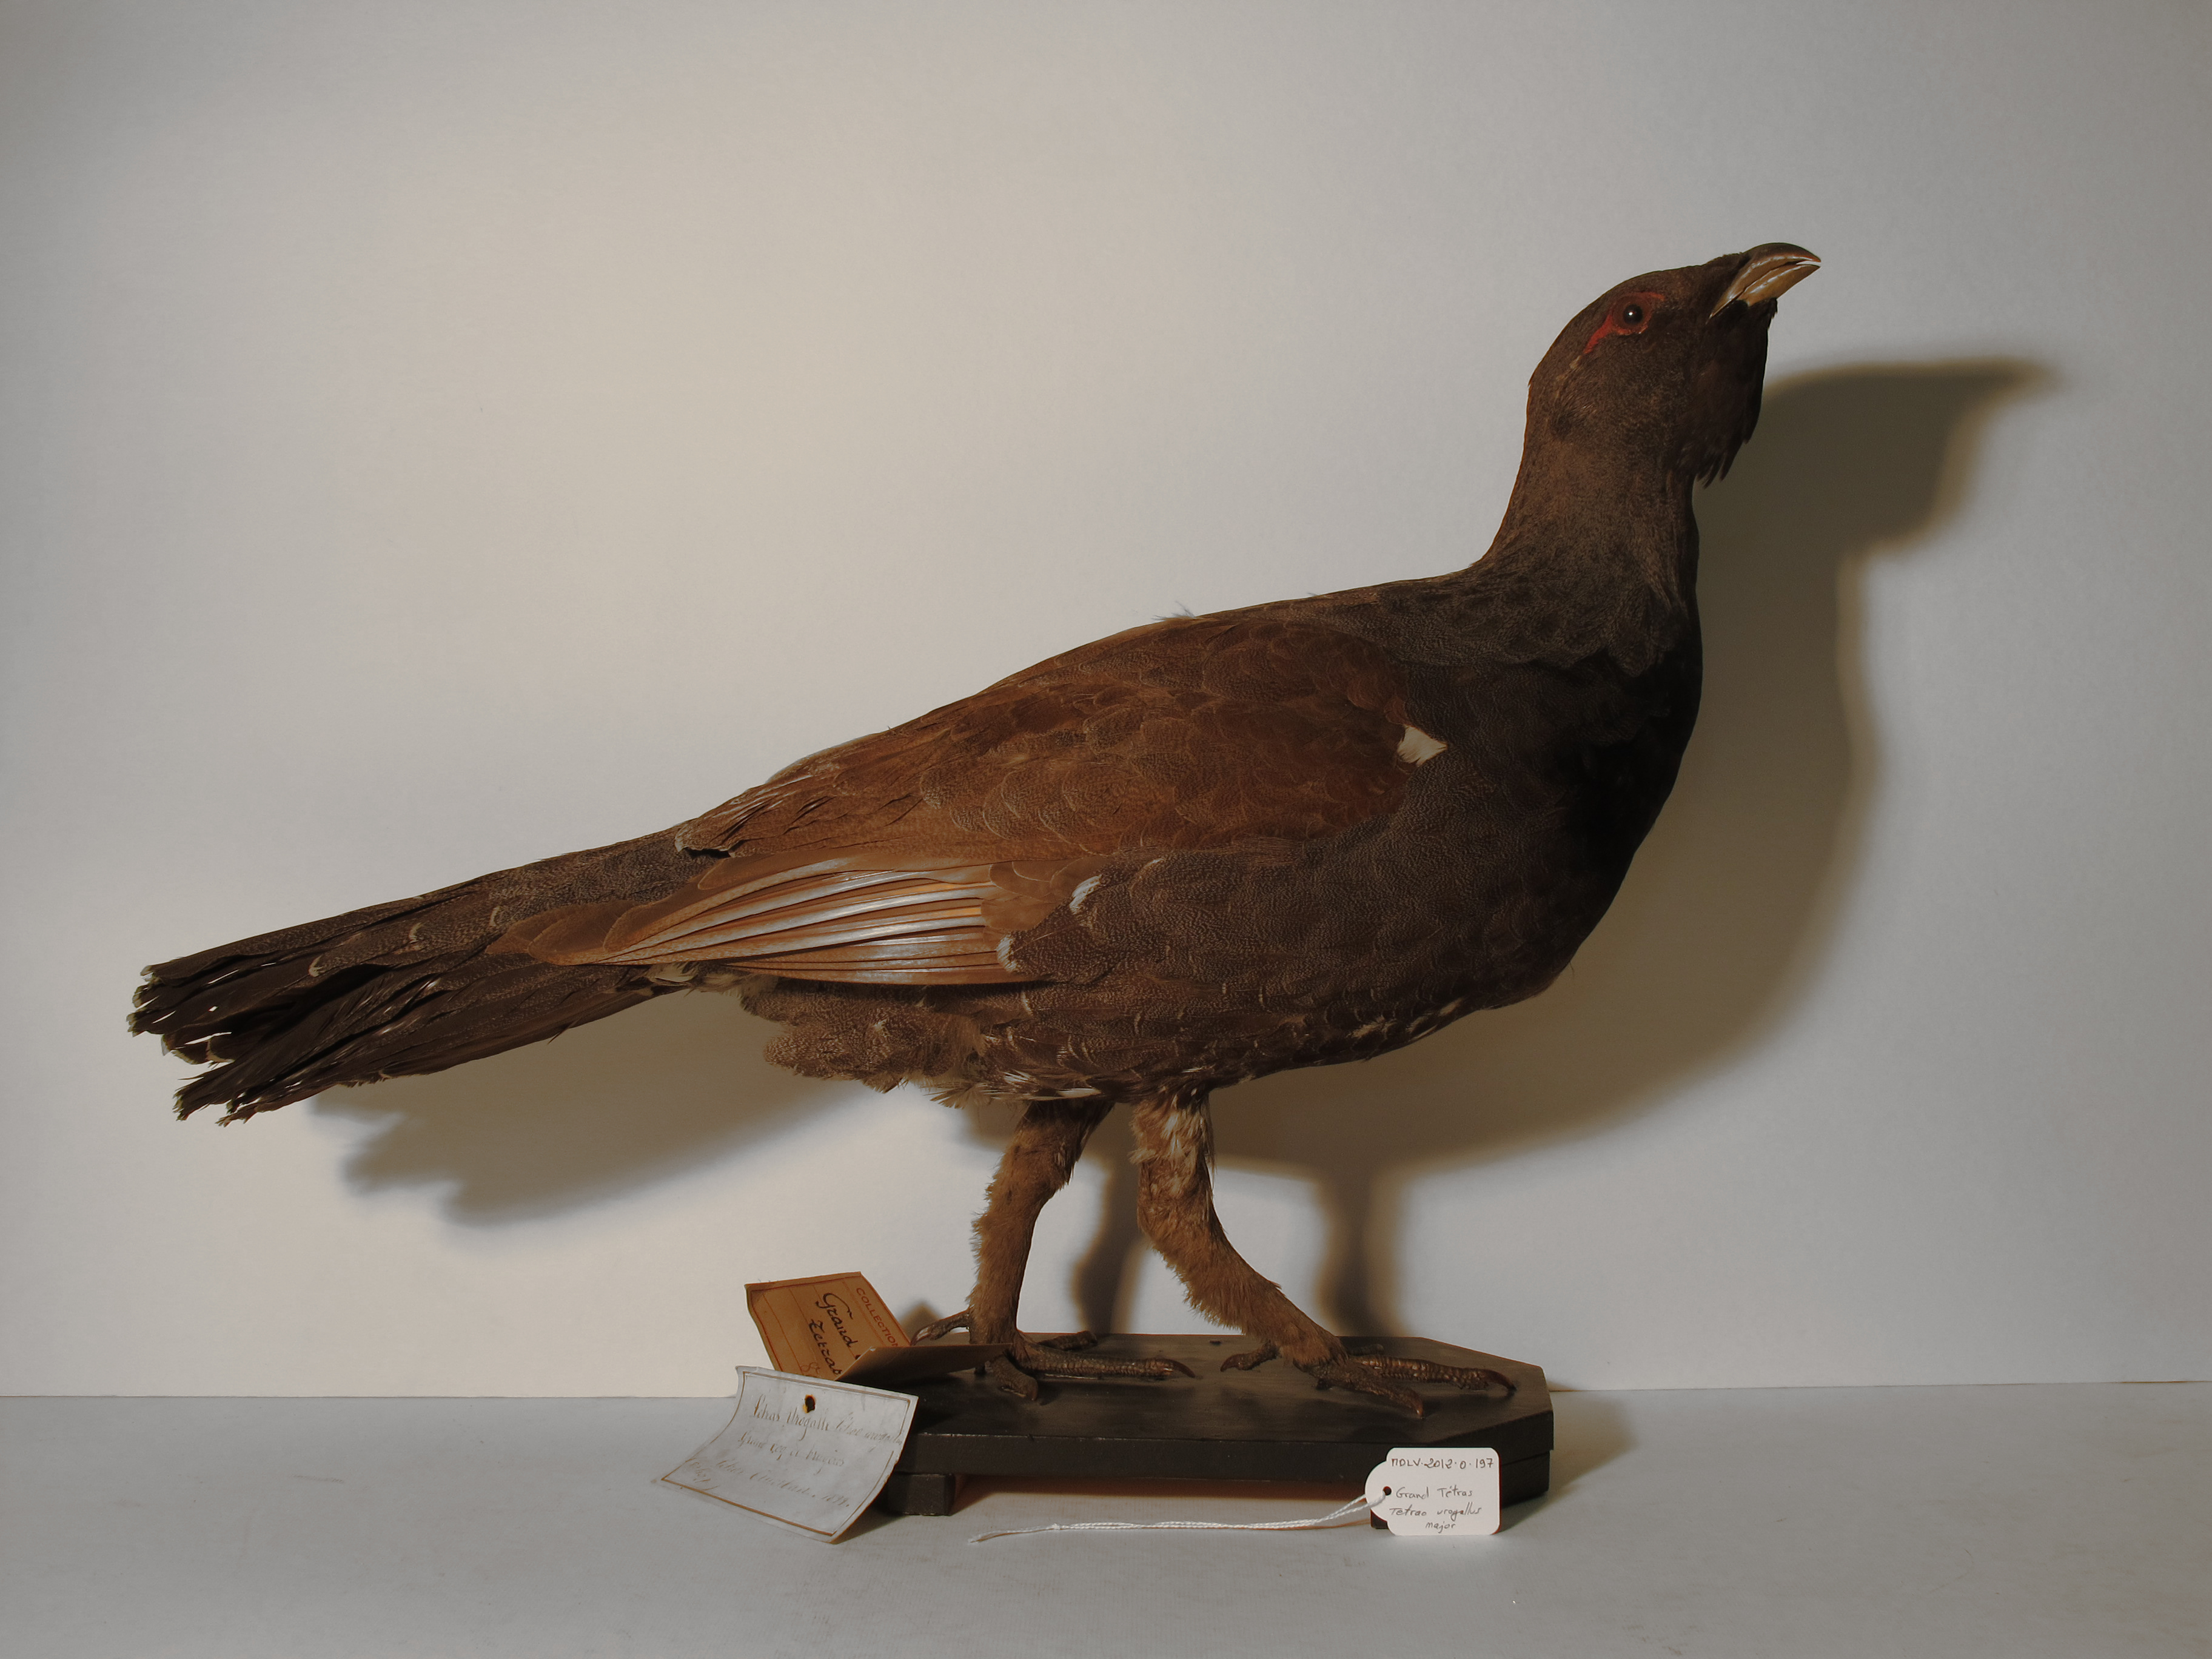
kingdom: Animalia
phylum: Chordata
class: Aves
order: Galliformes
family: Phasianidae
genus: Tetrao
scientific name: Tetrao urogallus
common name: Western Capercaillie
